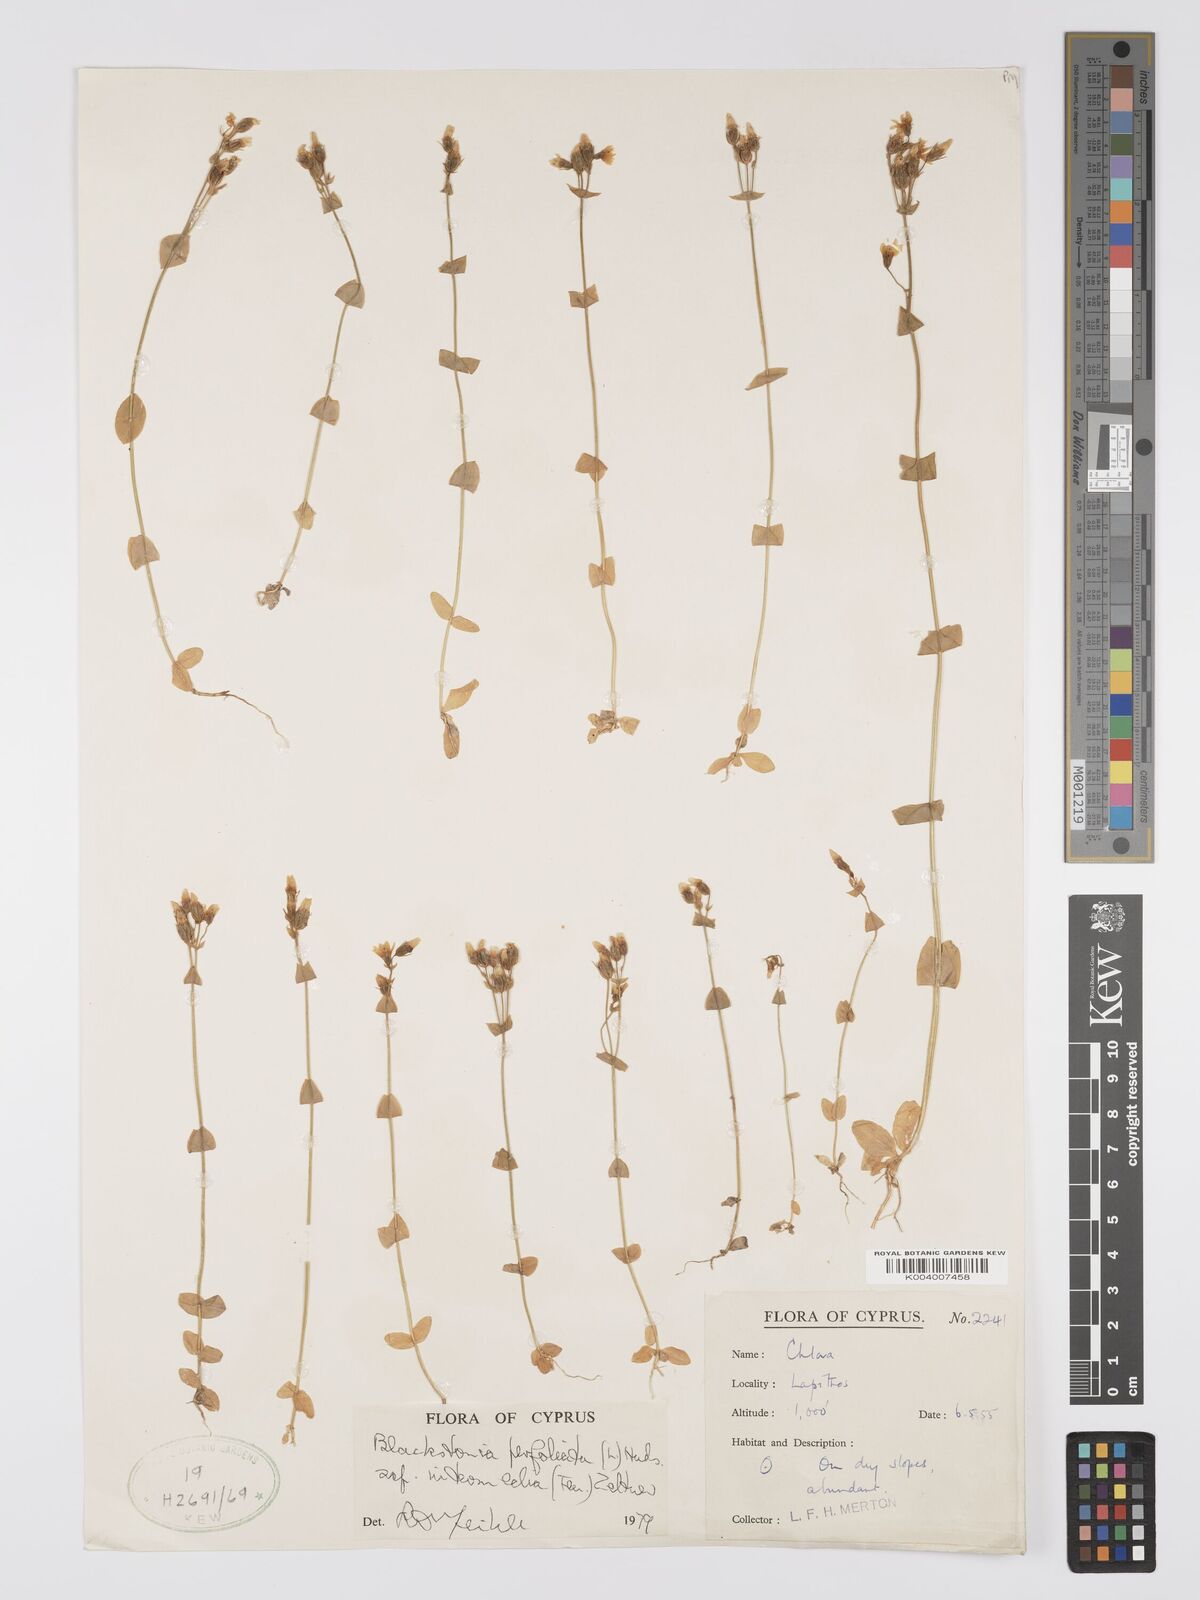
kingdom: Plantae
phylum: Tracheophyta
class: Magnoliopsida
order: Gentianales
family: Gentianaceae
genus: Blackstonia
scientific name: Blackstonia perfoliata
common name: Yellow-wort
